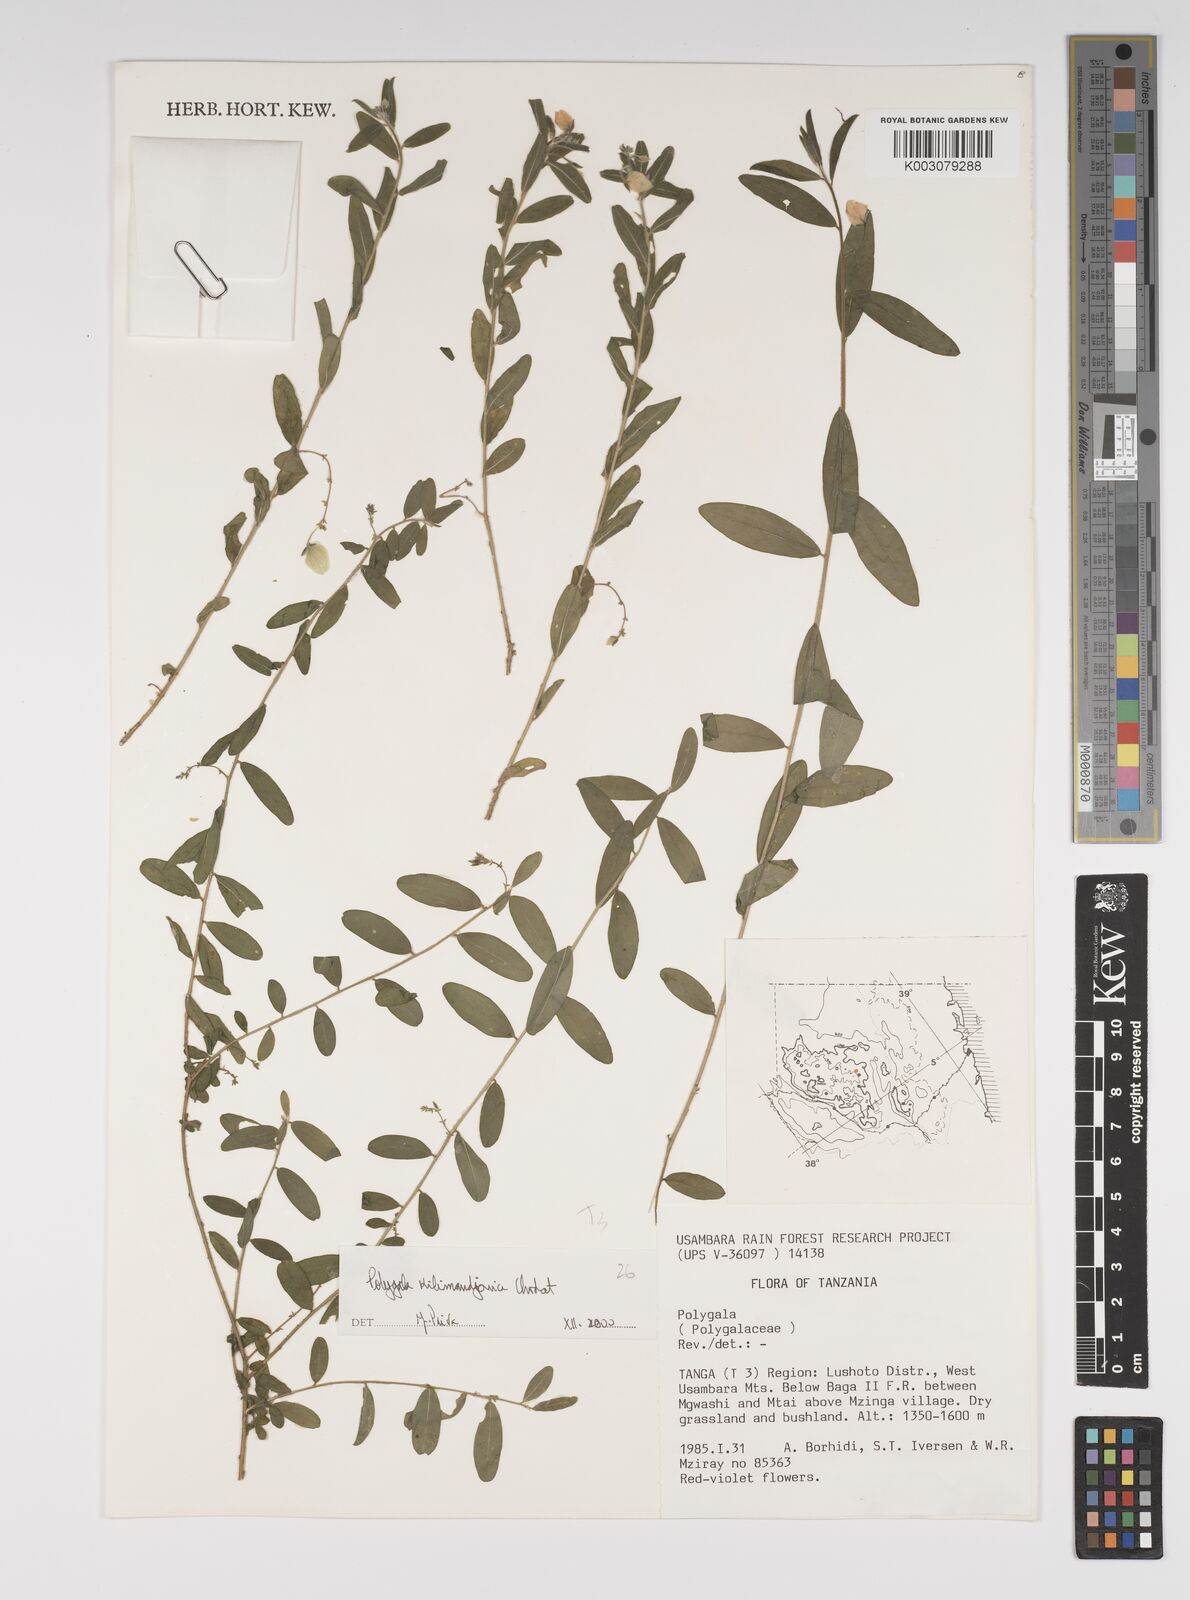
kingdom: Plantae
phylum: Tracheophyta
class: Magnoliopsida
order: Fabales
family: Polygalaceae
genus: Polygala
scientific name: Polygala kilimandjarica
